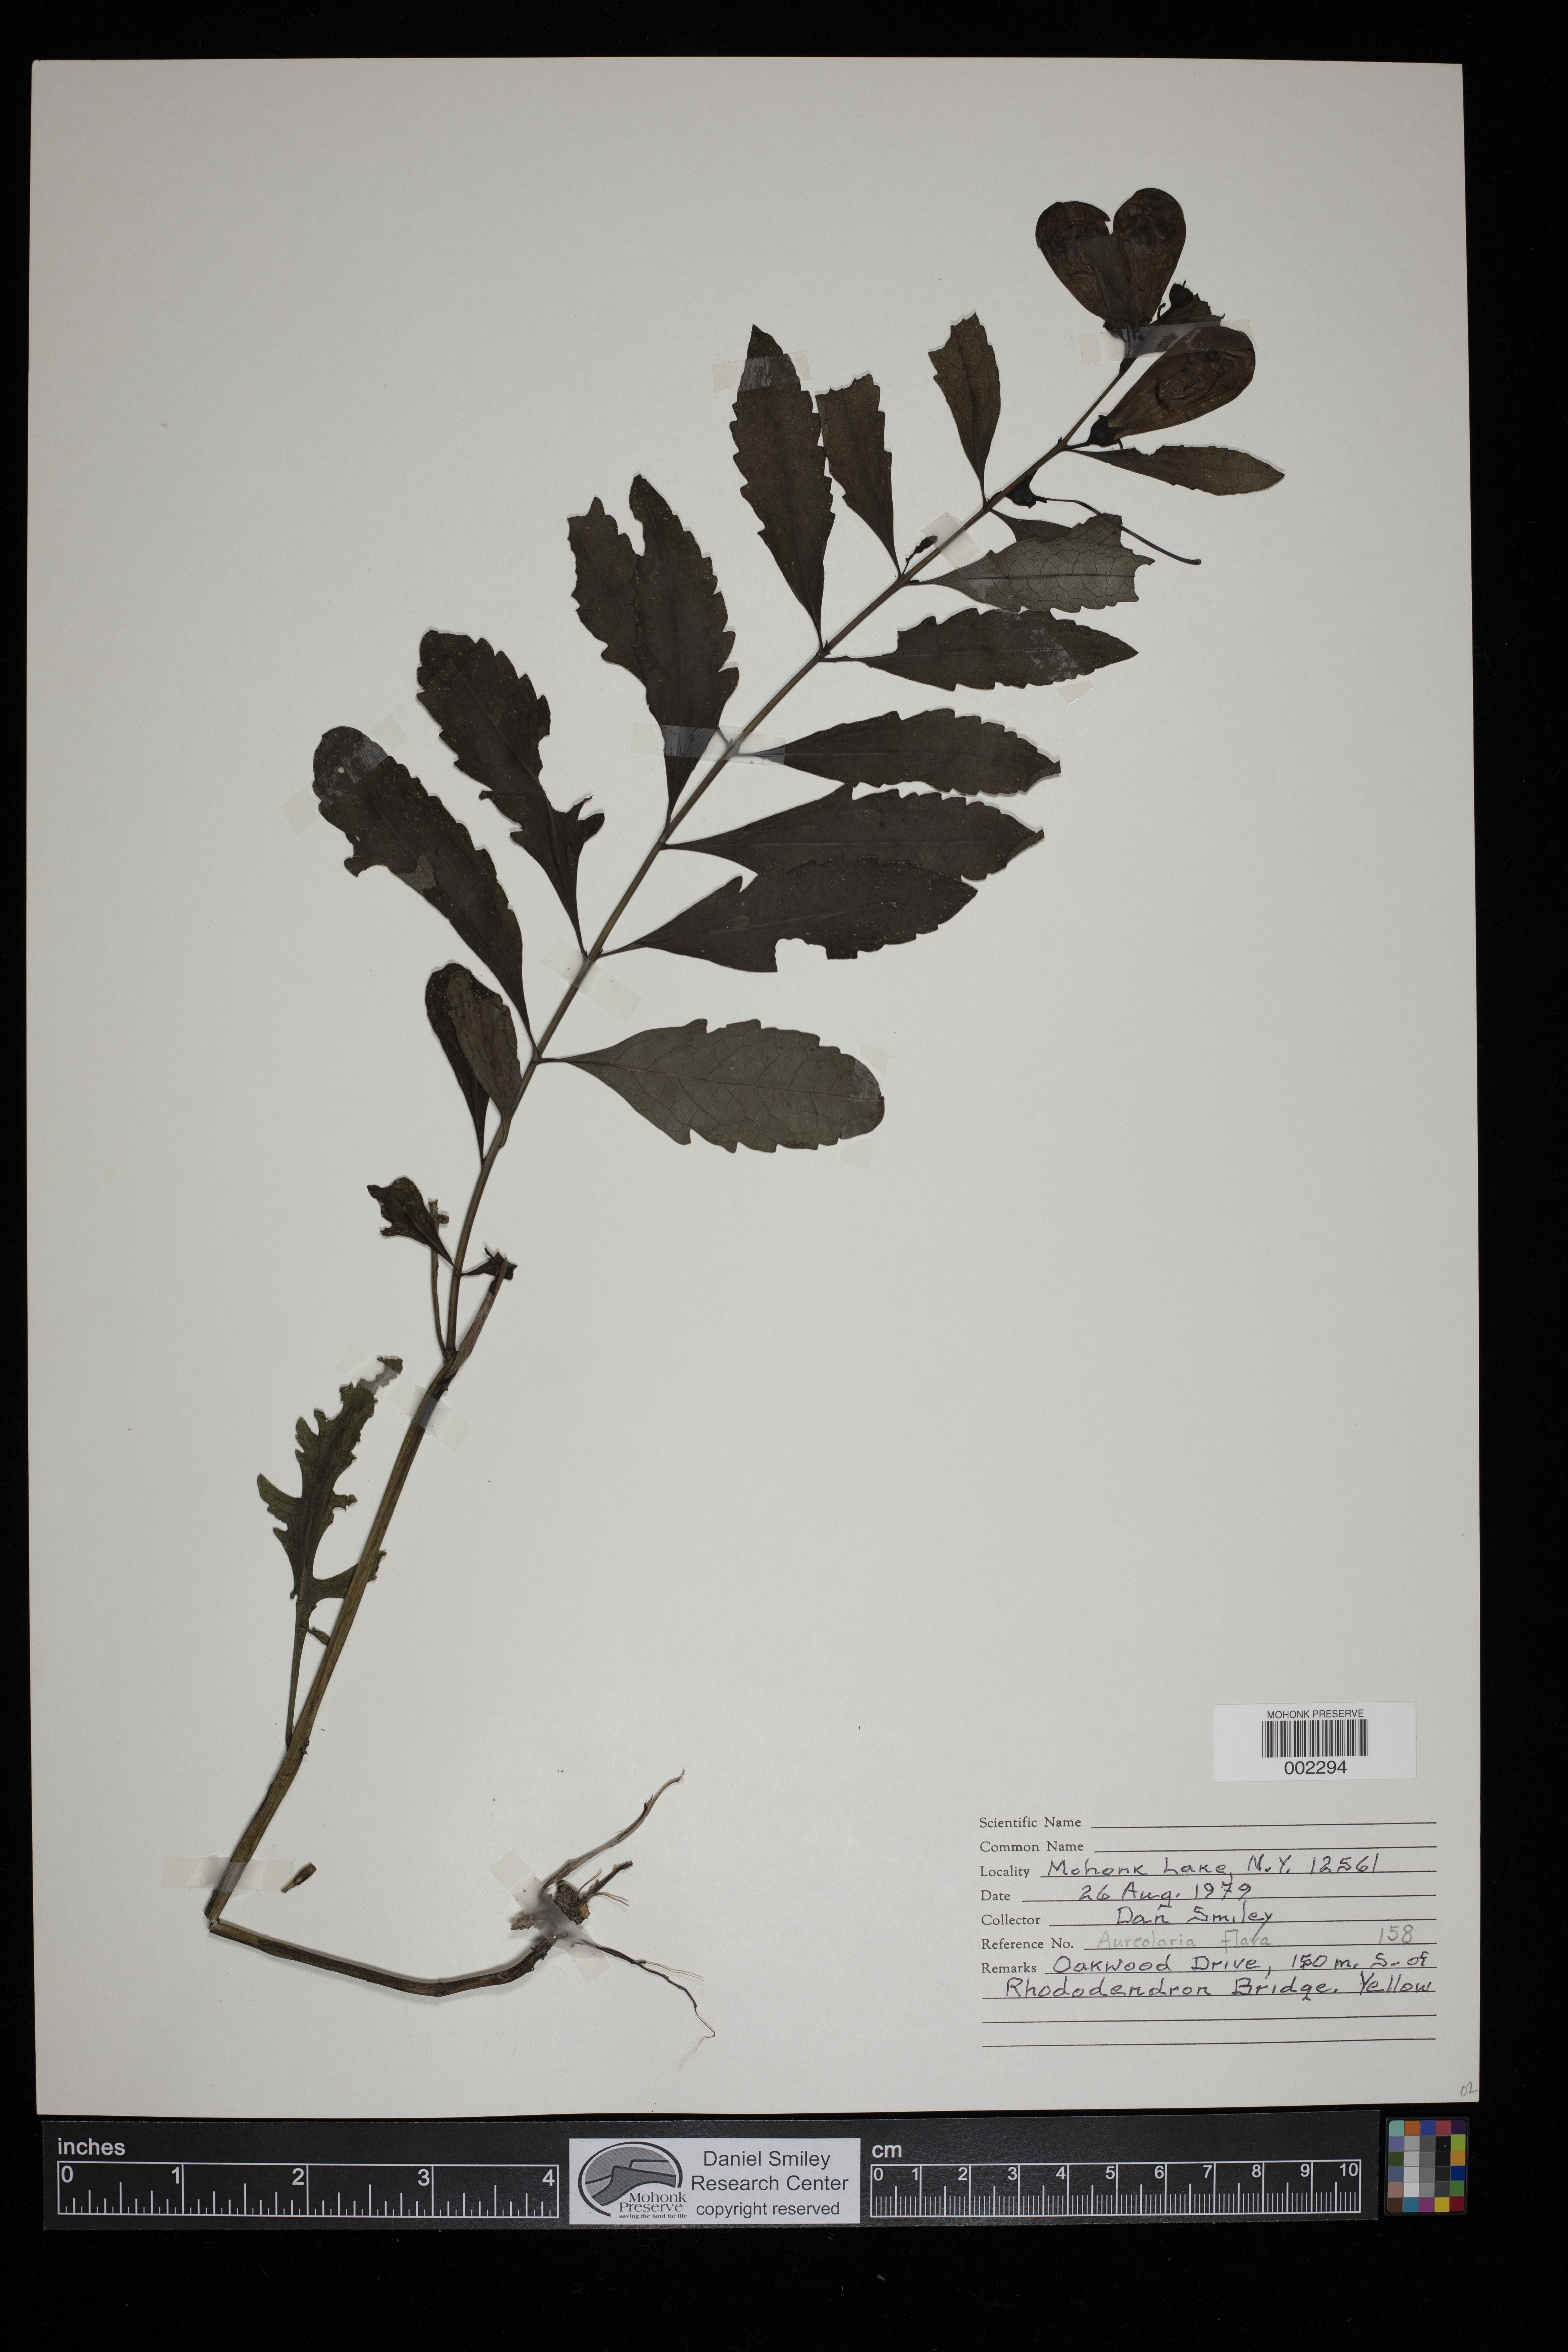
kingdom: Plantae
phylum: Tracheophyta
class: Magnoliopsida
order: Lamiales
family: Orobanchaceae
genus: Aureolaria
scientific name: Aureolaria flava
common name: Smooth false foxglove
